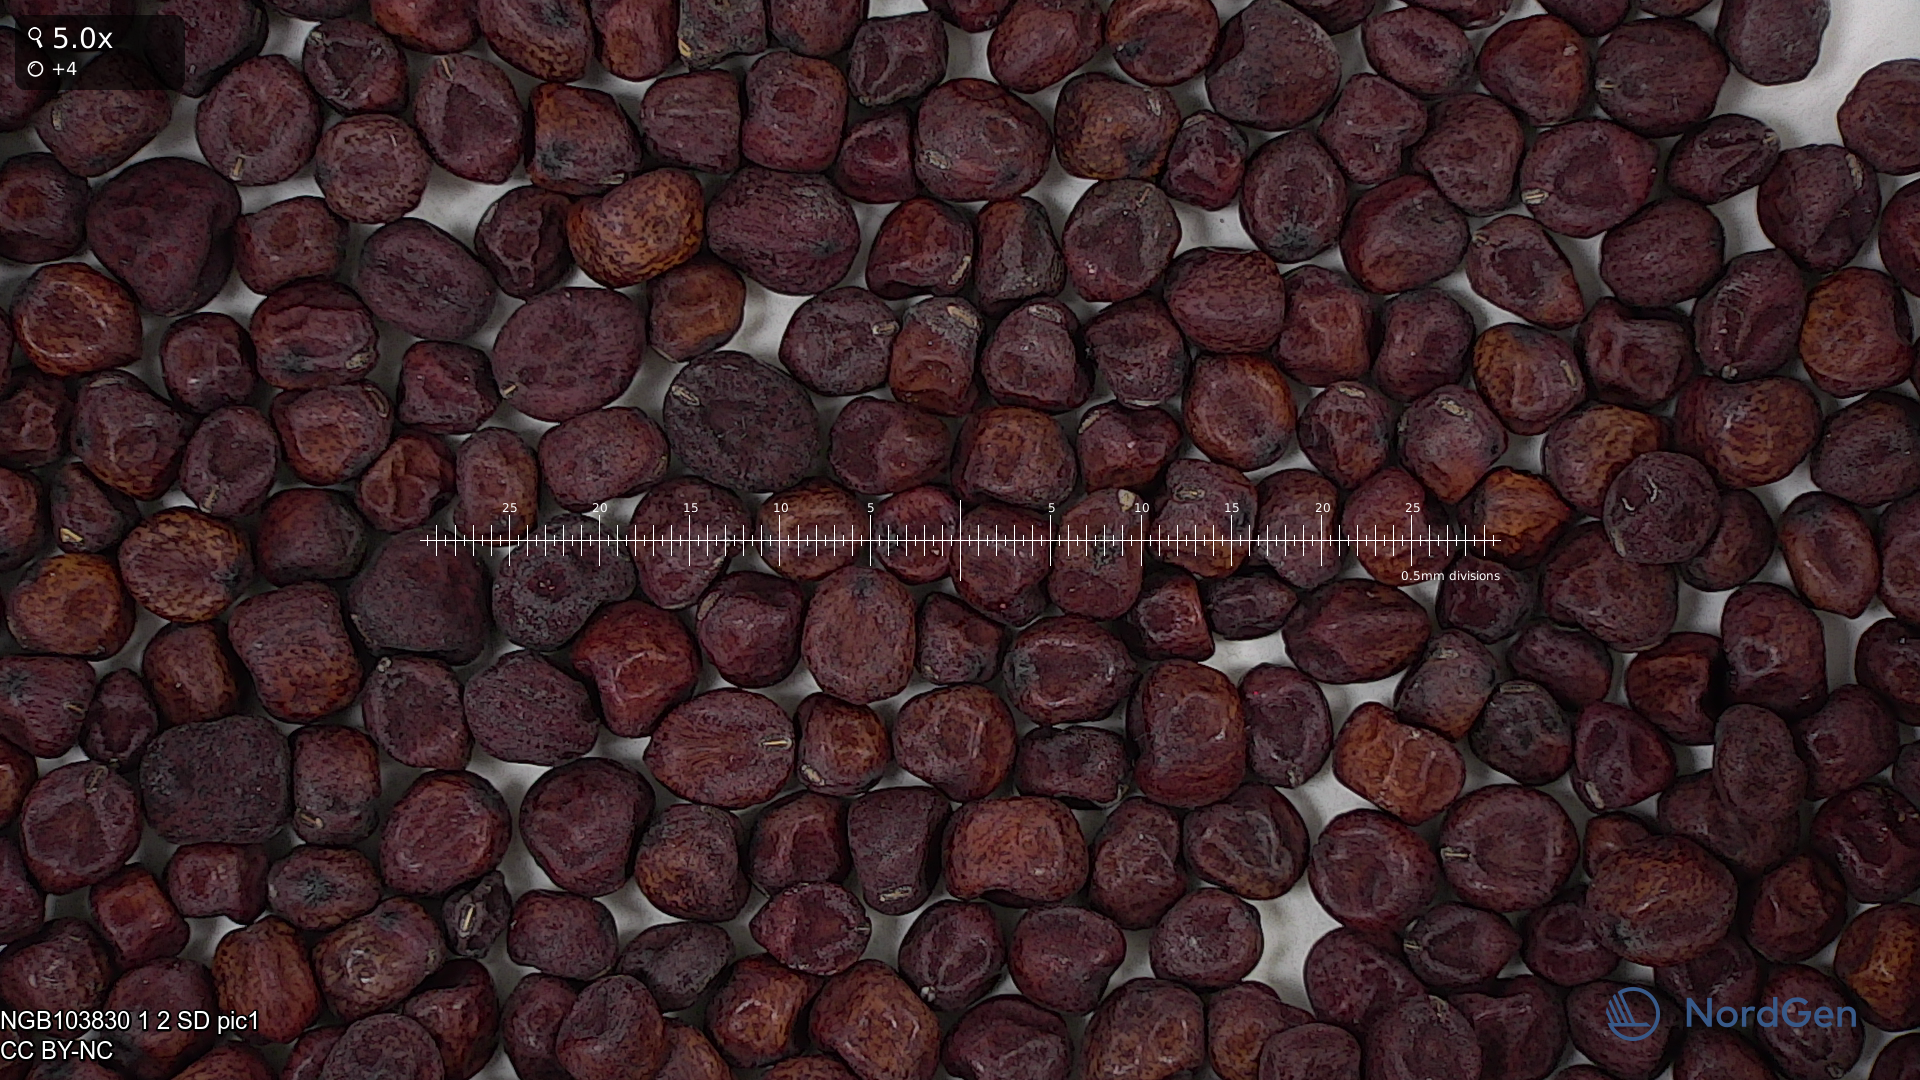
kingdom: Plantae
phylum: Tracheophyta
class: Magnoliopsida
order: Fabales
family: Fabaceae
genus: Lathyrus
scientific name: Lathyrus oleraceus
